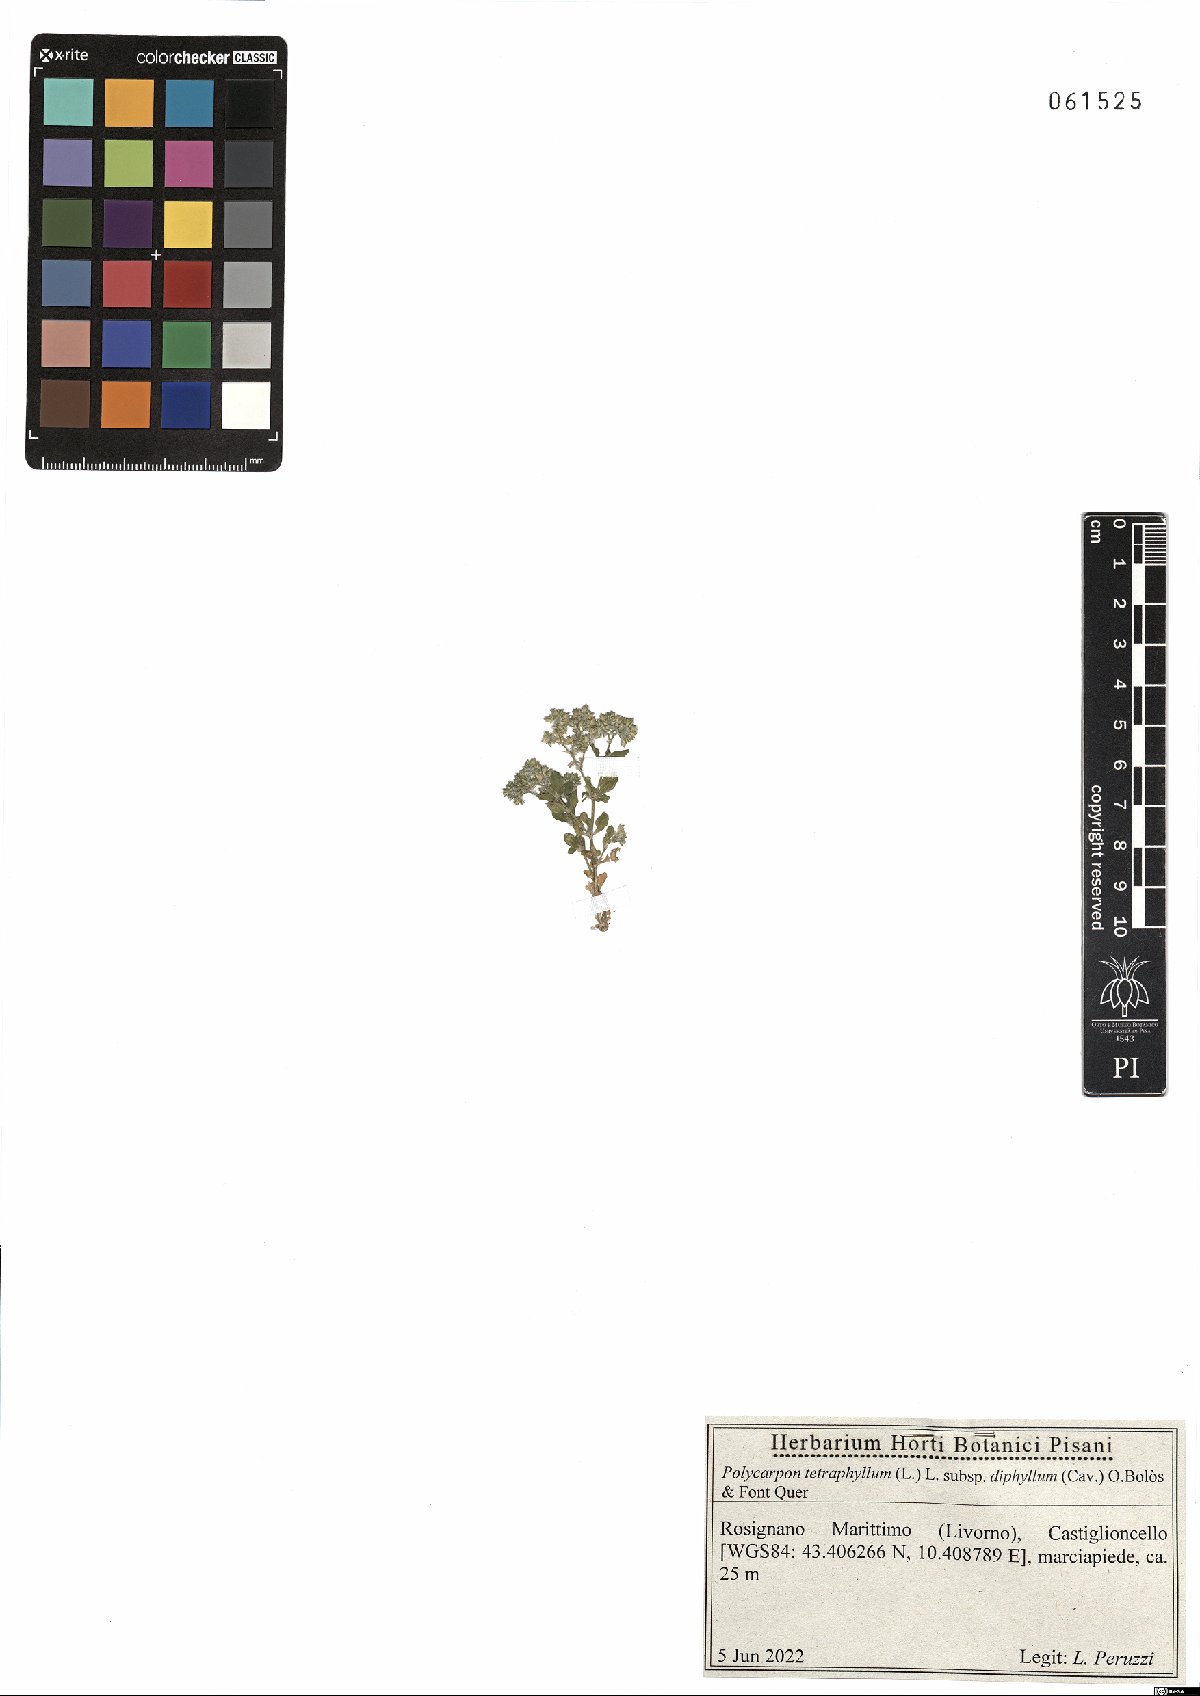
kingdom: Plantae
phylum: Tracheophyta
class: Magnoliopsida
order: Caryophyllales
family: Caryophyllaceae
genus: Polycarpon
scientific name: Polycarpon tetraphyllum
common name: Four-leaved all-seed
